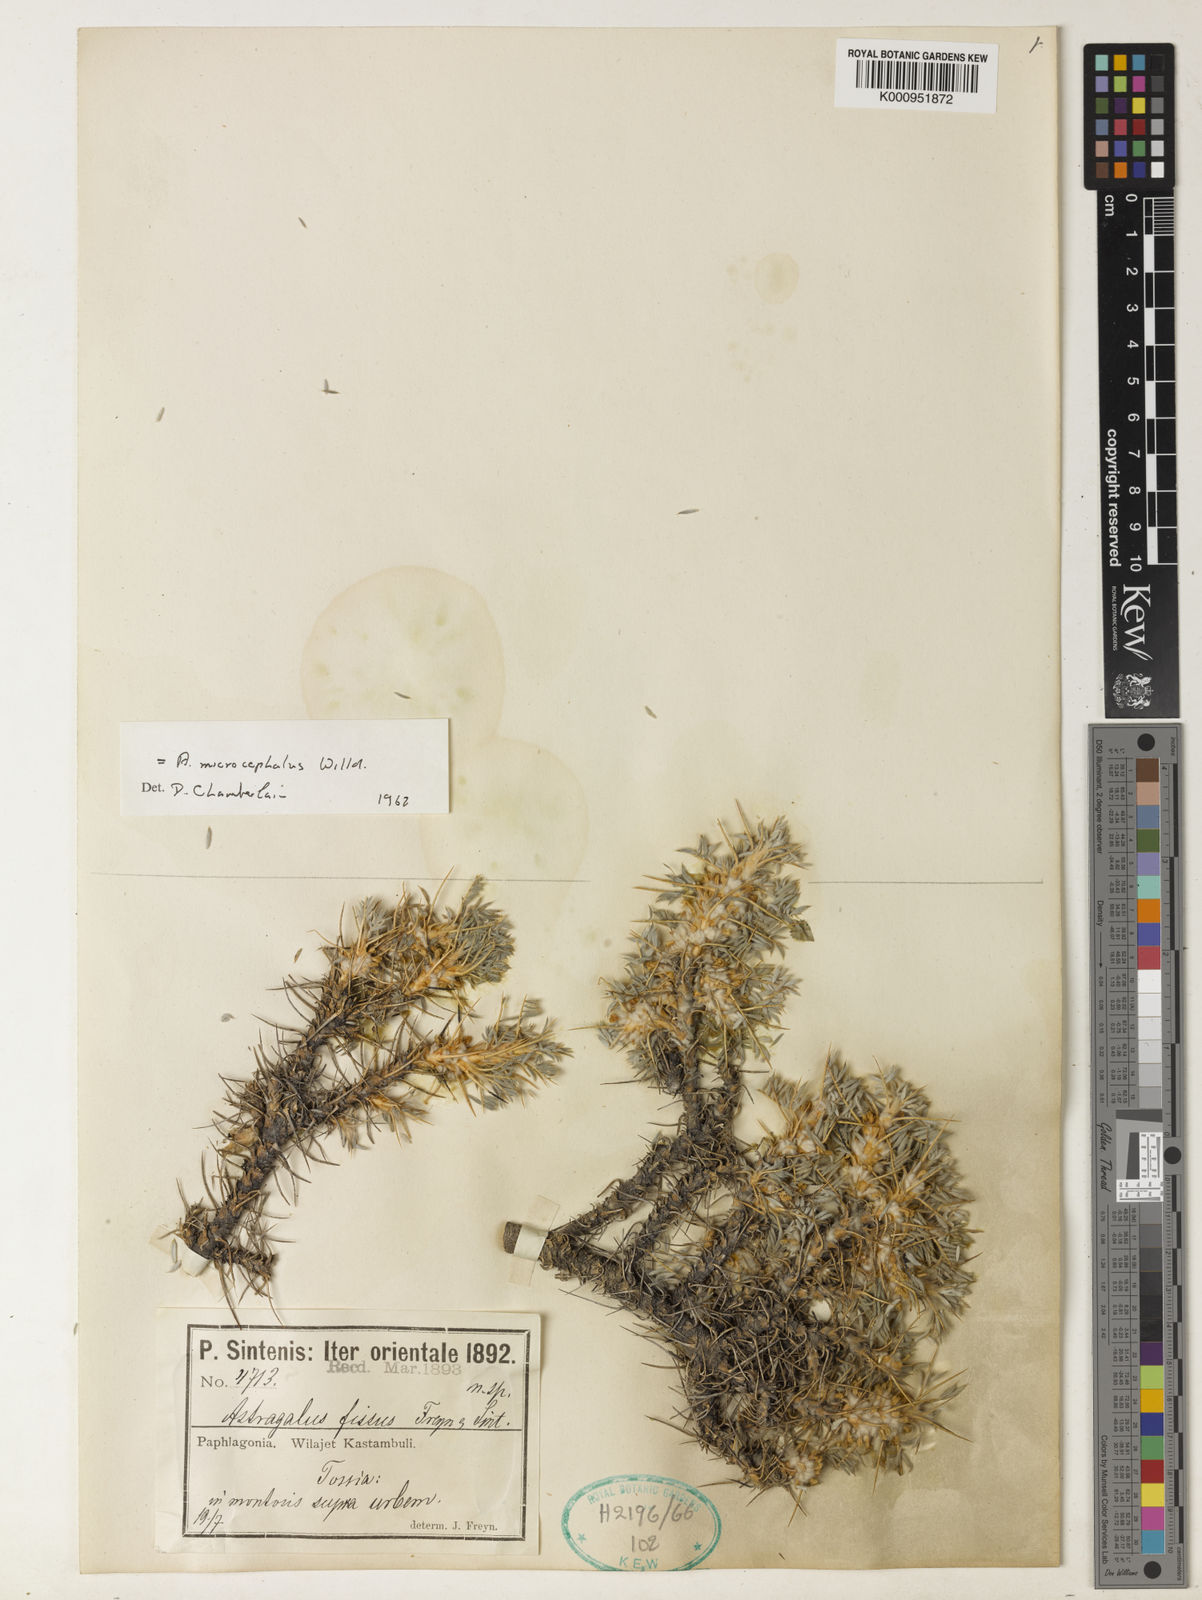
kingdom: Plantae
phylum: Tracheophyta
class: Magnoliopsida
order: Fabales
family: Fabaceae
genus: Astragalus
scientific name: Astragalus microcephalus
